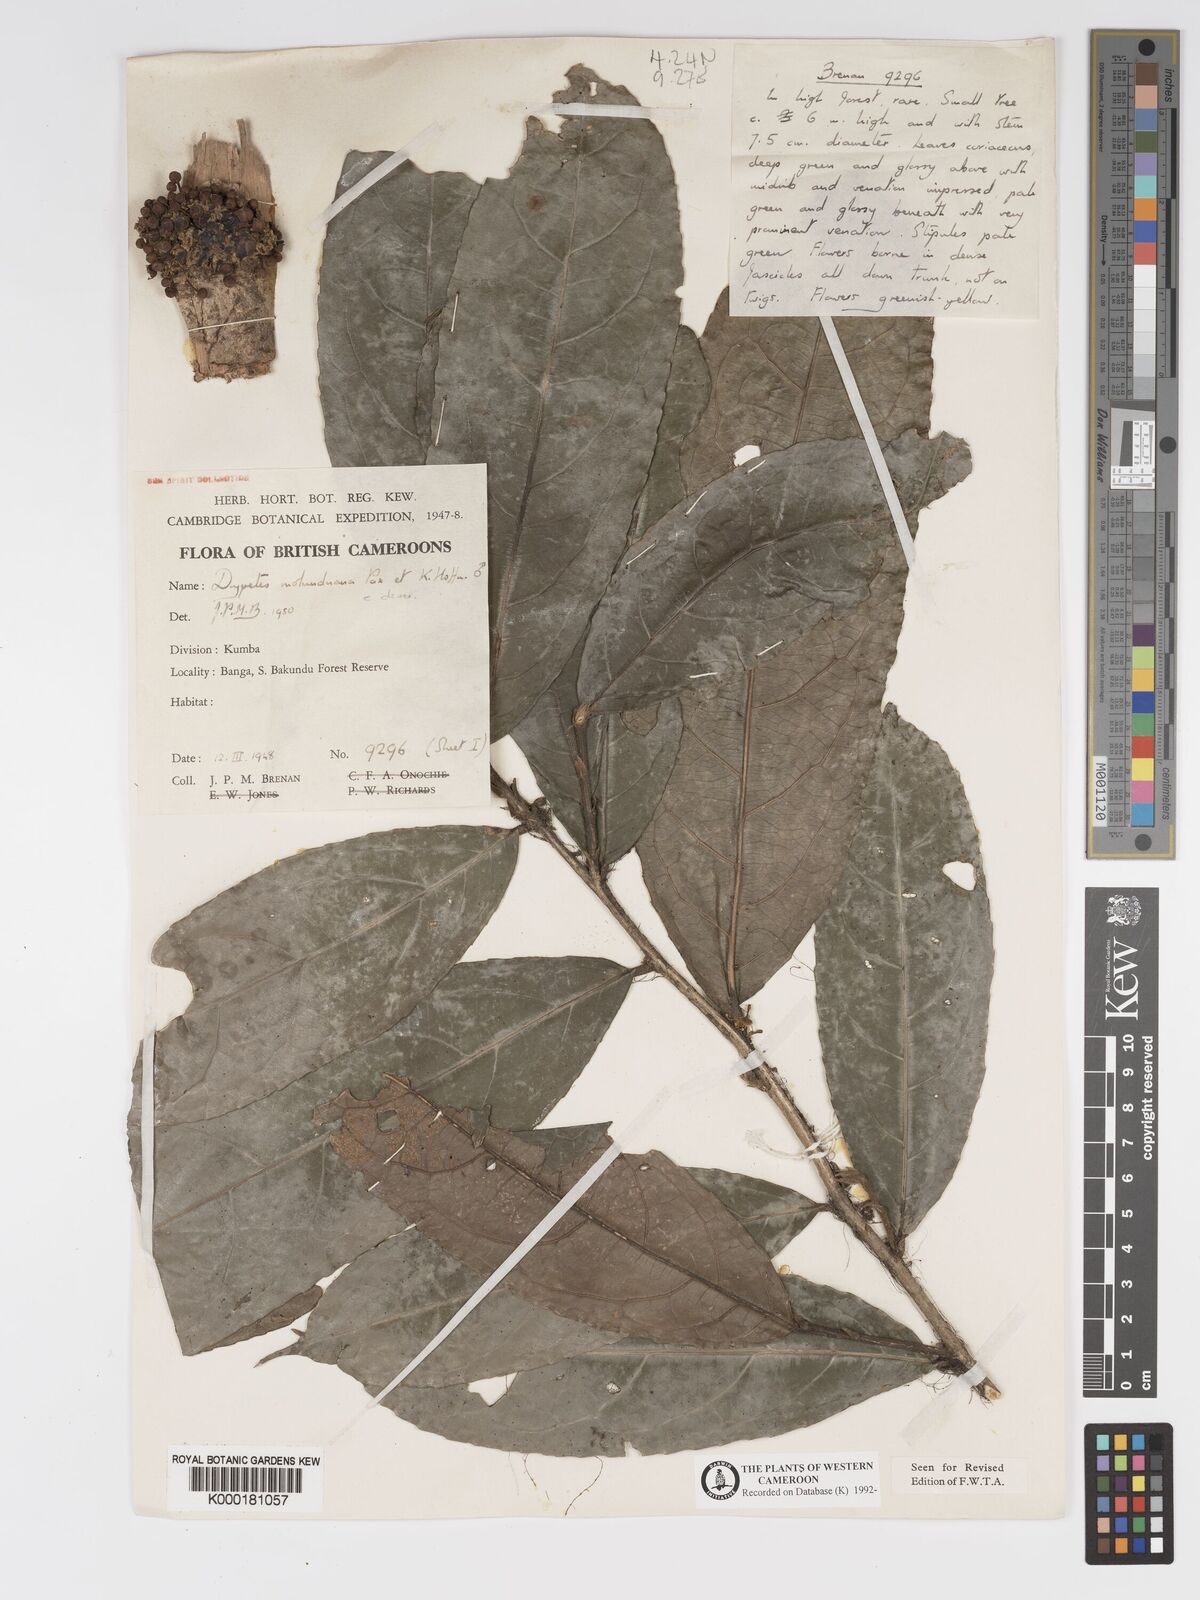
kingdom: Plantae
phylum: Tracheophyta
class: Magnoliopsida
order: Malpighiales
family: Putranjivaceae
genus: Drypetes
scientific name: Drypetes molunduana
